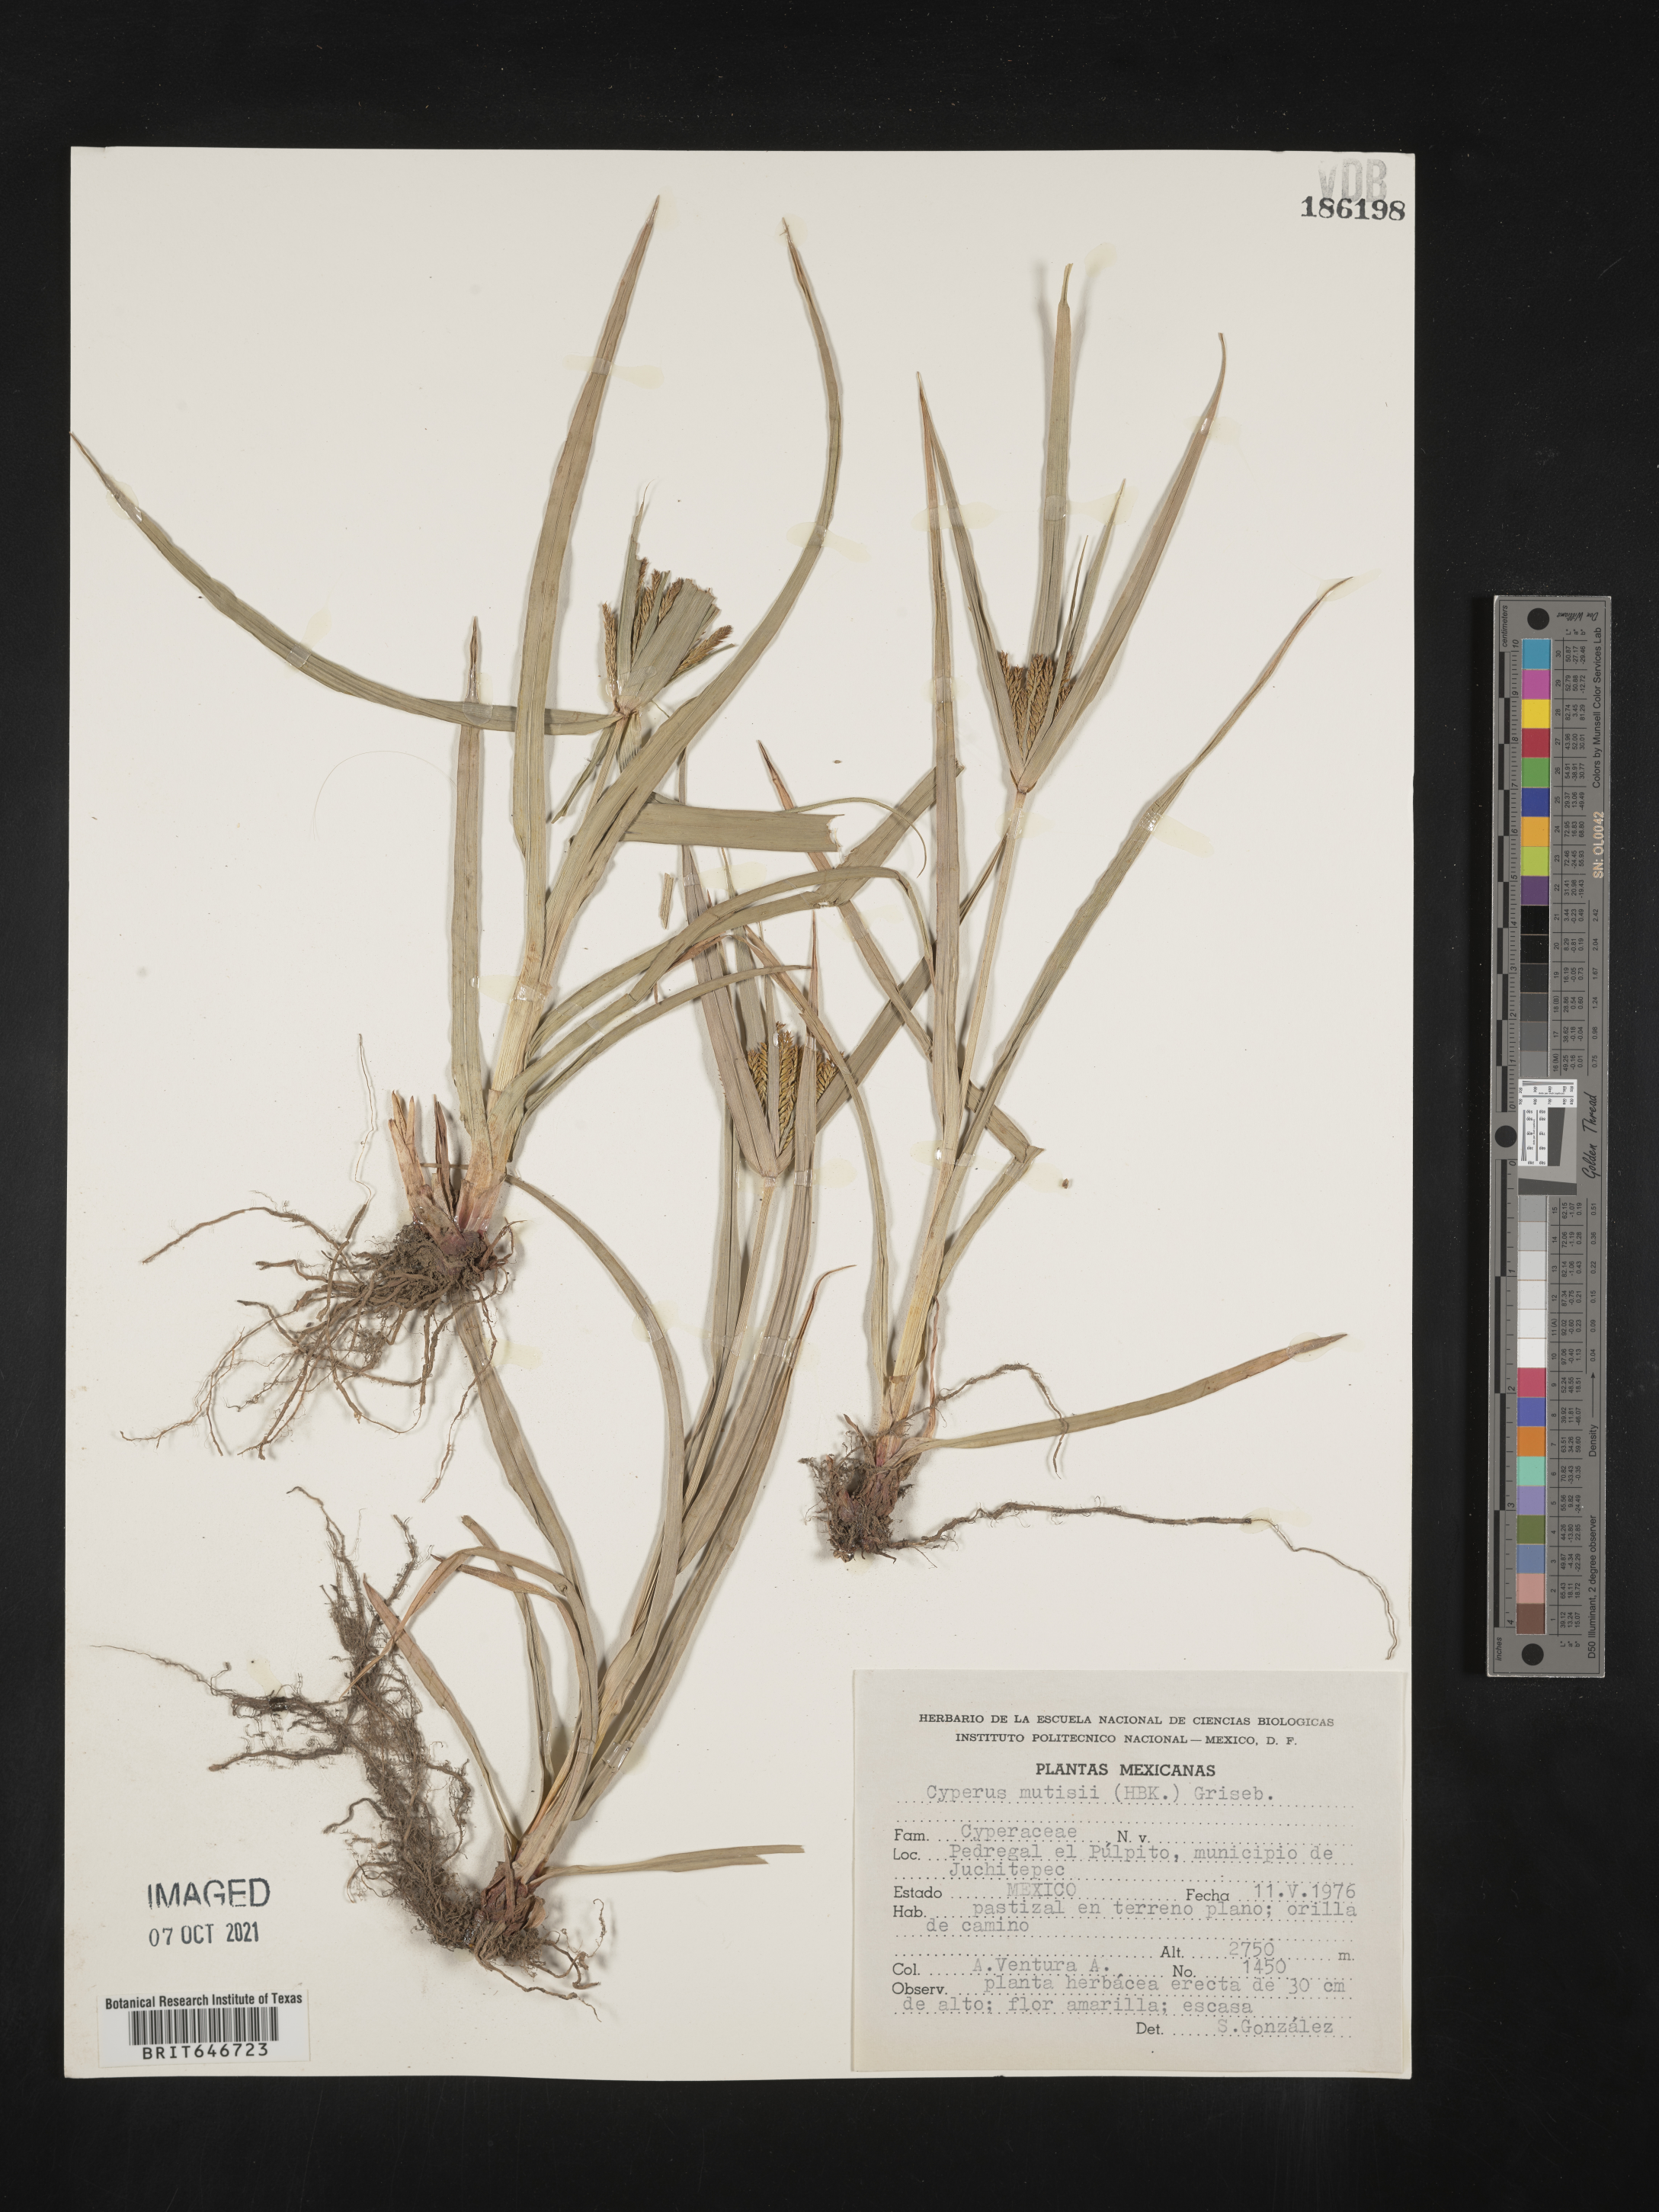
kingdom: Plantae
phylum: Tracheophyta
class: Liliopsida
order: Poales
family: Cyperaceae
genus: Cyperus
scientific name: Cyperus
